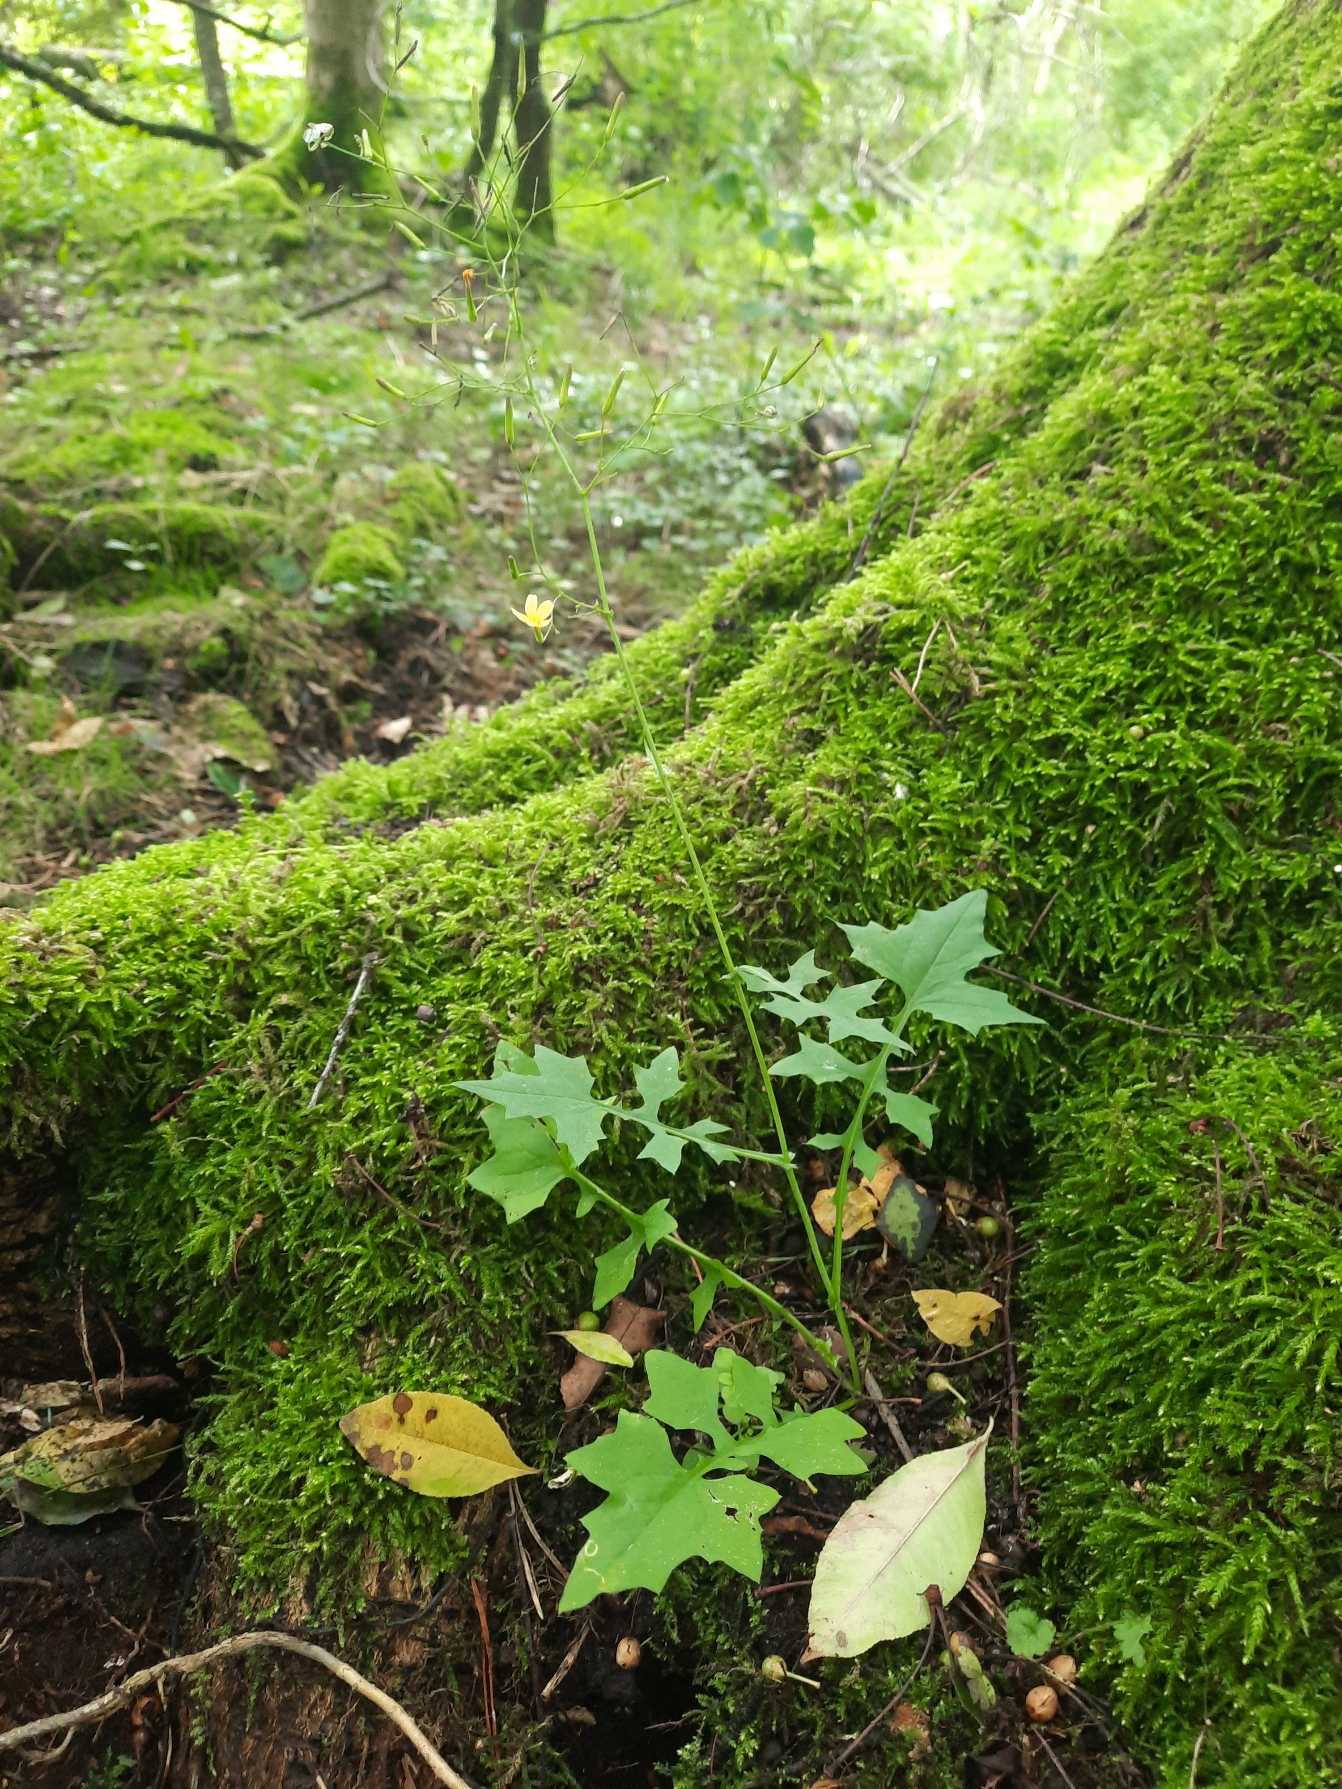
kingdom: Plantae
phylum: Tracheophyta
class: Magnoliopsida
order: Asterales
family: Asteraceae
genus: Mycelis
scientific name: Mycelis muralis
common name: Skov-salat
